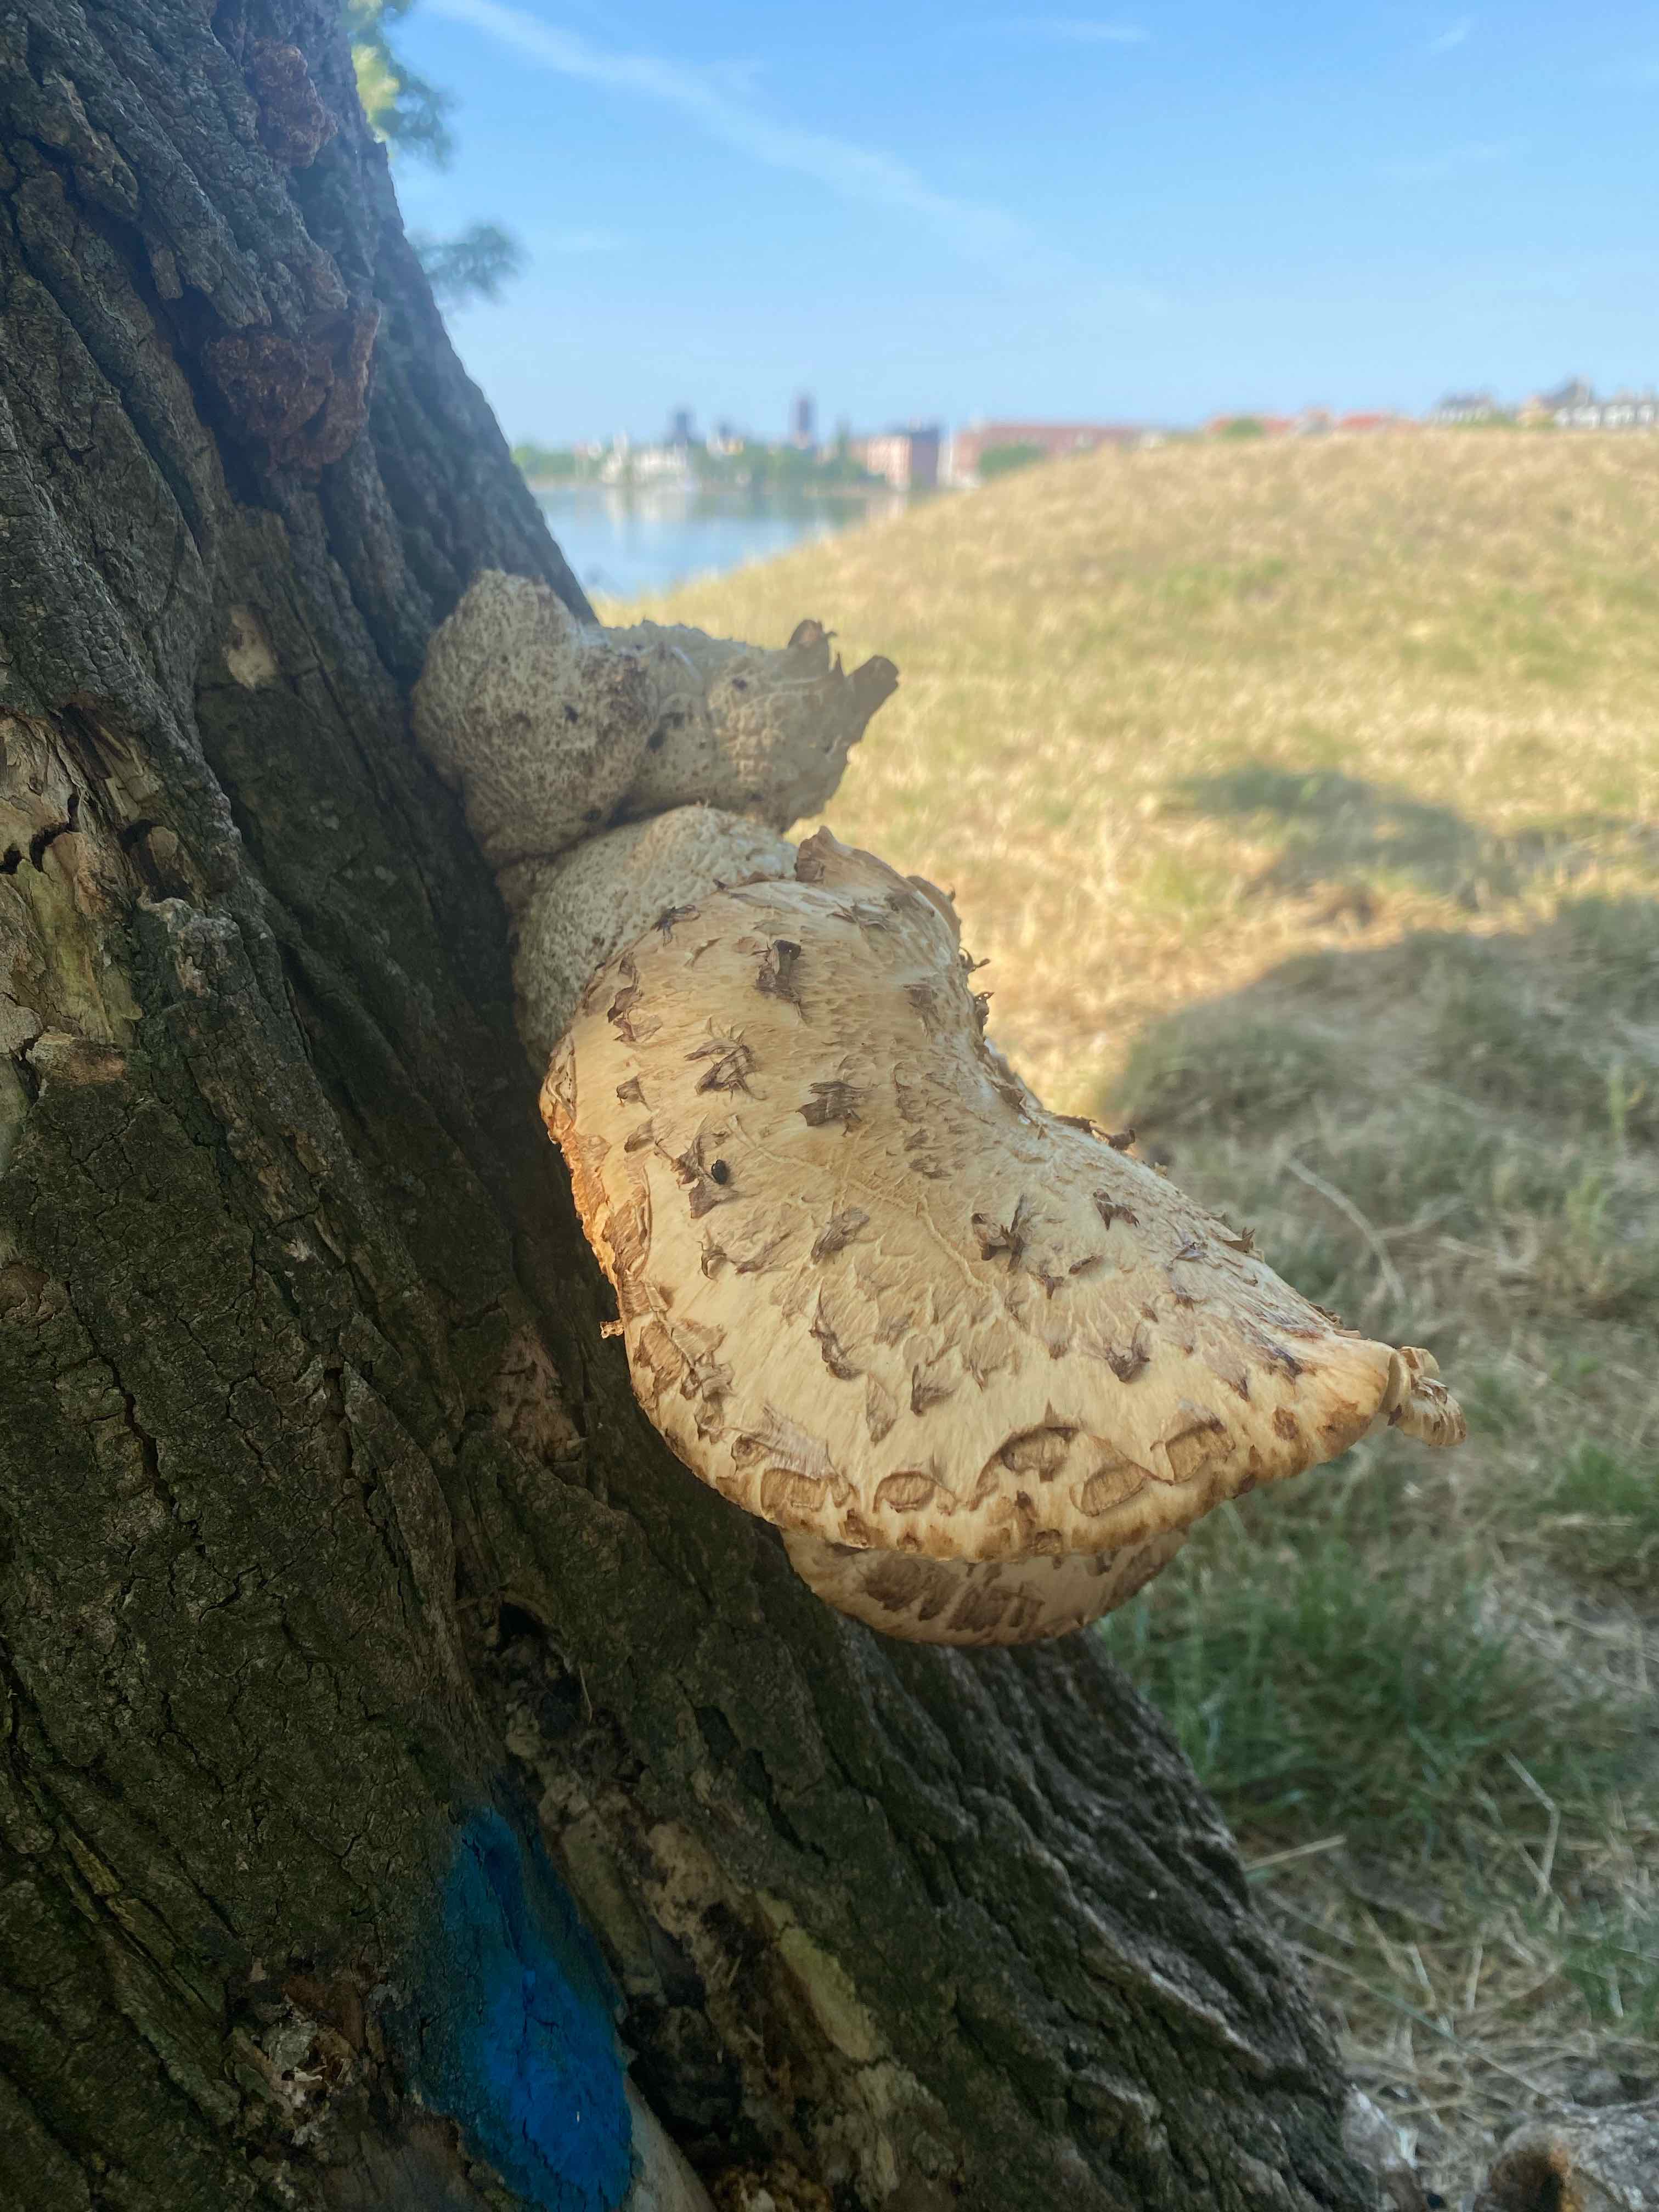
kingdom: Fungi
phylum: Basidiomycota
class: Agaricomycetes
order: Polyporales
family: Polyporaceae
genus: Cerioporus
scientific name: Cerioporus squamosus
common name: skællet stilkporesvamp
